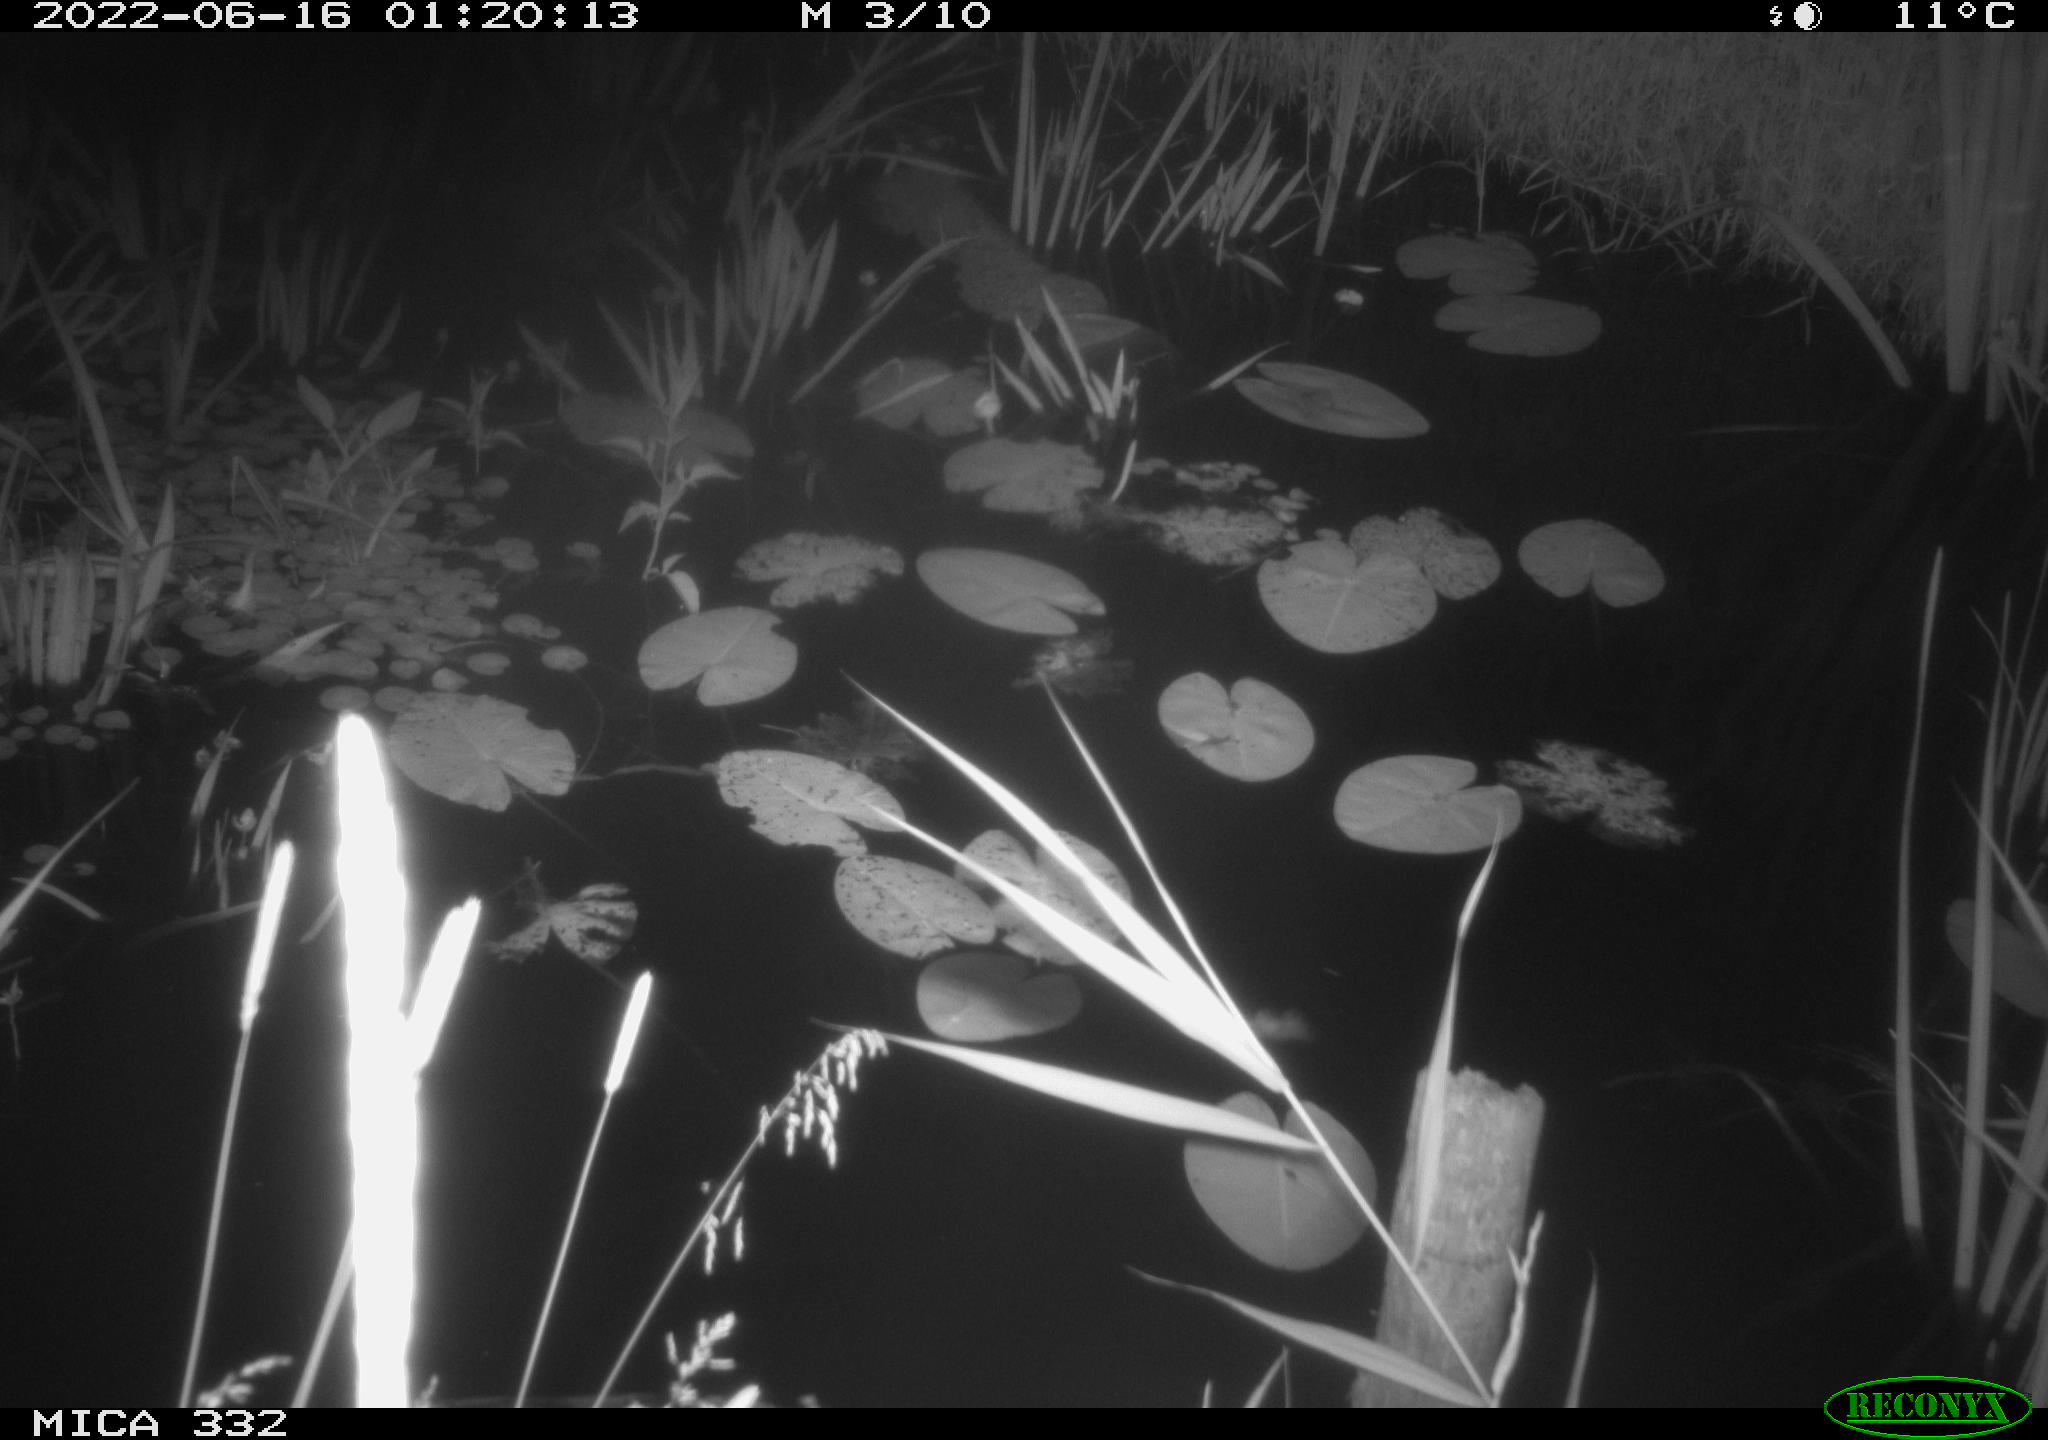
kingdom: Animalia
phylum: Chordata
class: Mammalia
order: Carnivora
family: Mustelidae
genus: Lutra
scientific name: Lutra lutra
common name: European otter
